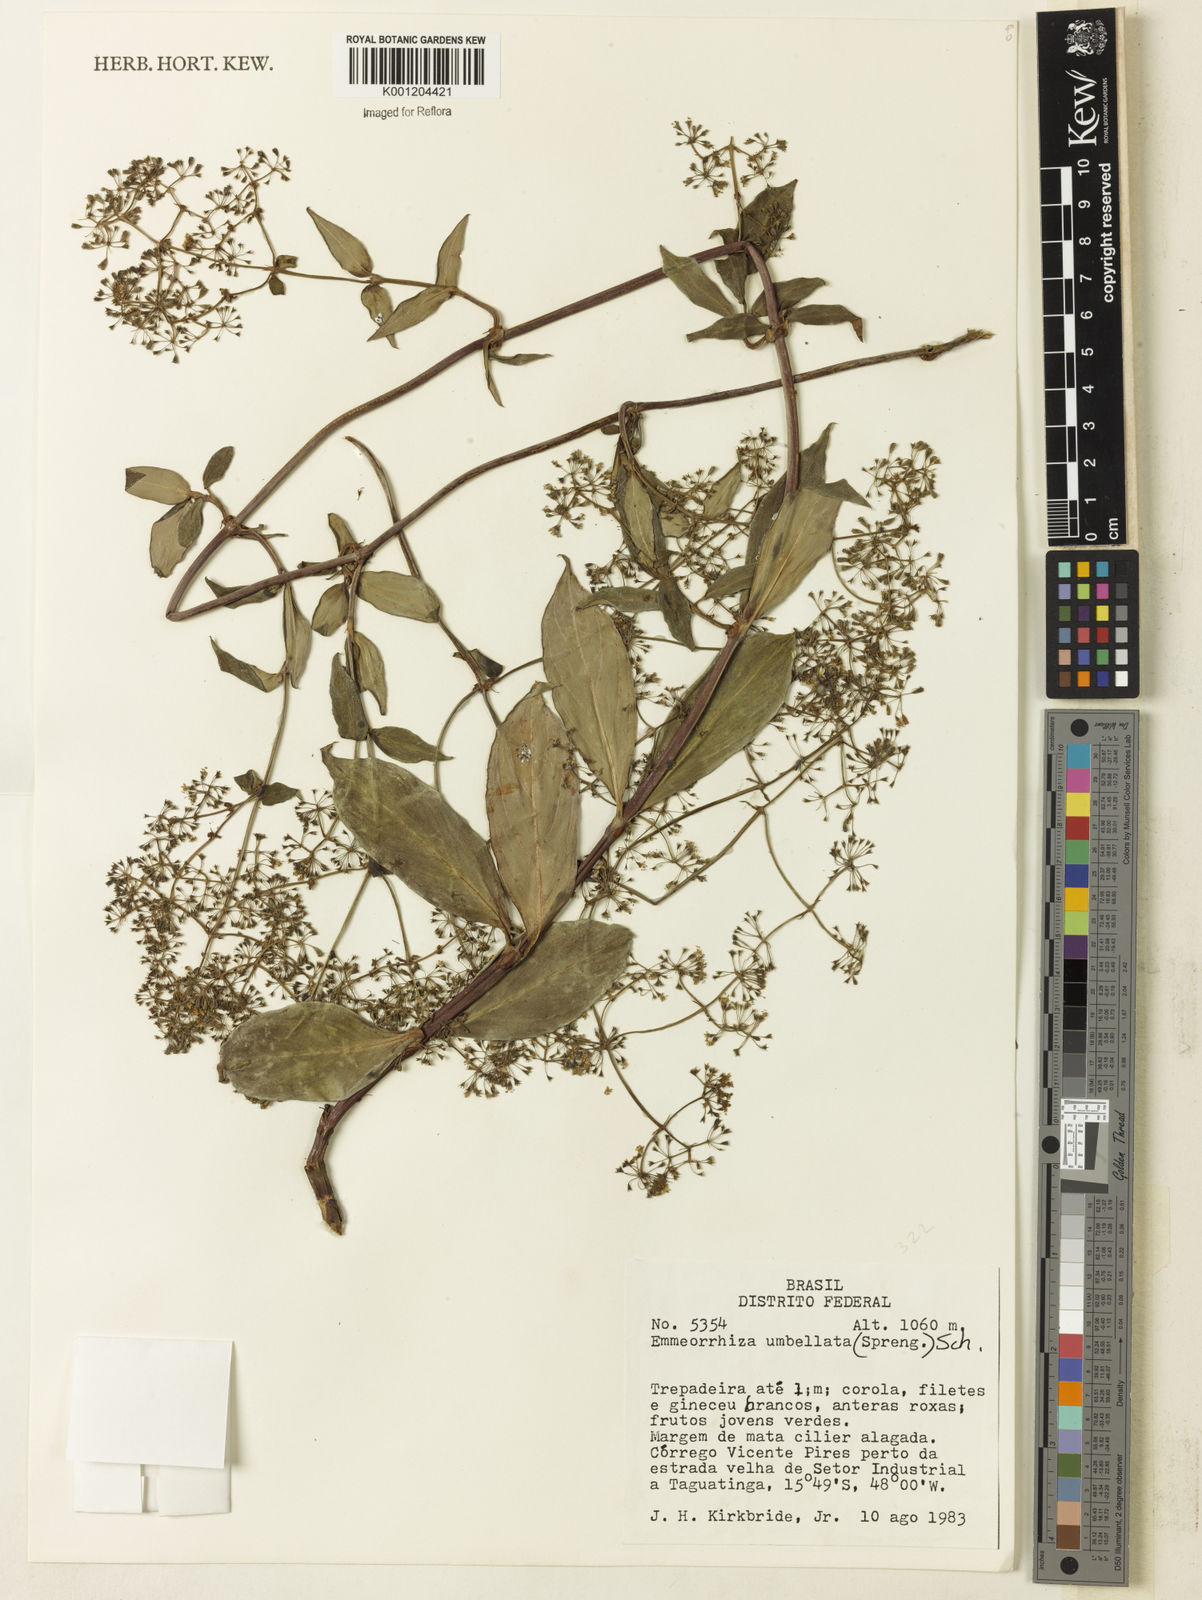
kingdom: Plantae
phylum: Tracheophyta
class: Magnoliopsida
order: Gentianales
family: Rubiaceae
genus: Emmeorhiza
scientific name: Emmeorhiza umbellata
